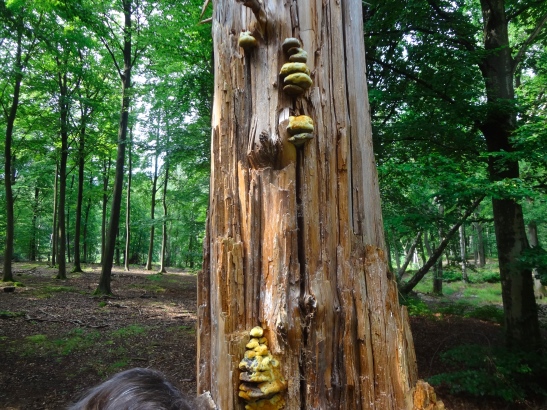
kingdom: Fungi
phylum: Basidiomycota
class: Agaricomycetes
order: Polyporales
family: Laetiporaceae
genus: Phaeolus
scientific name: Phaeolus schweinitzii
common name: brunporesvamp
